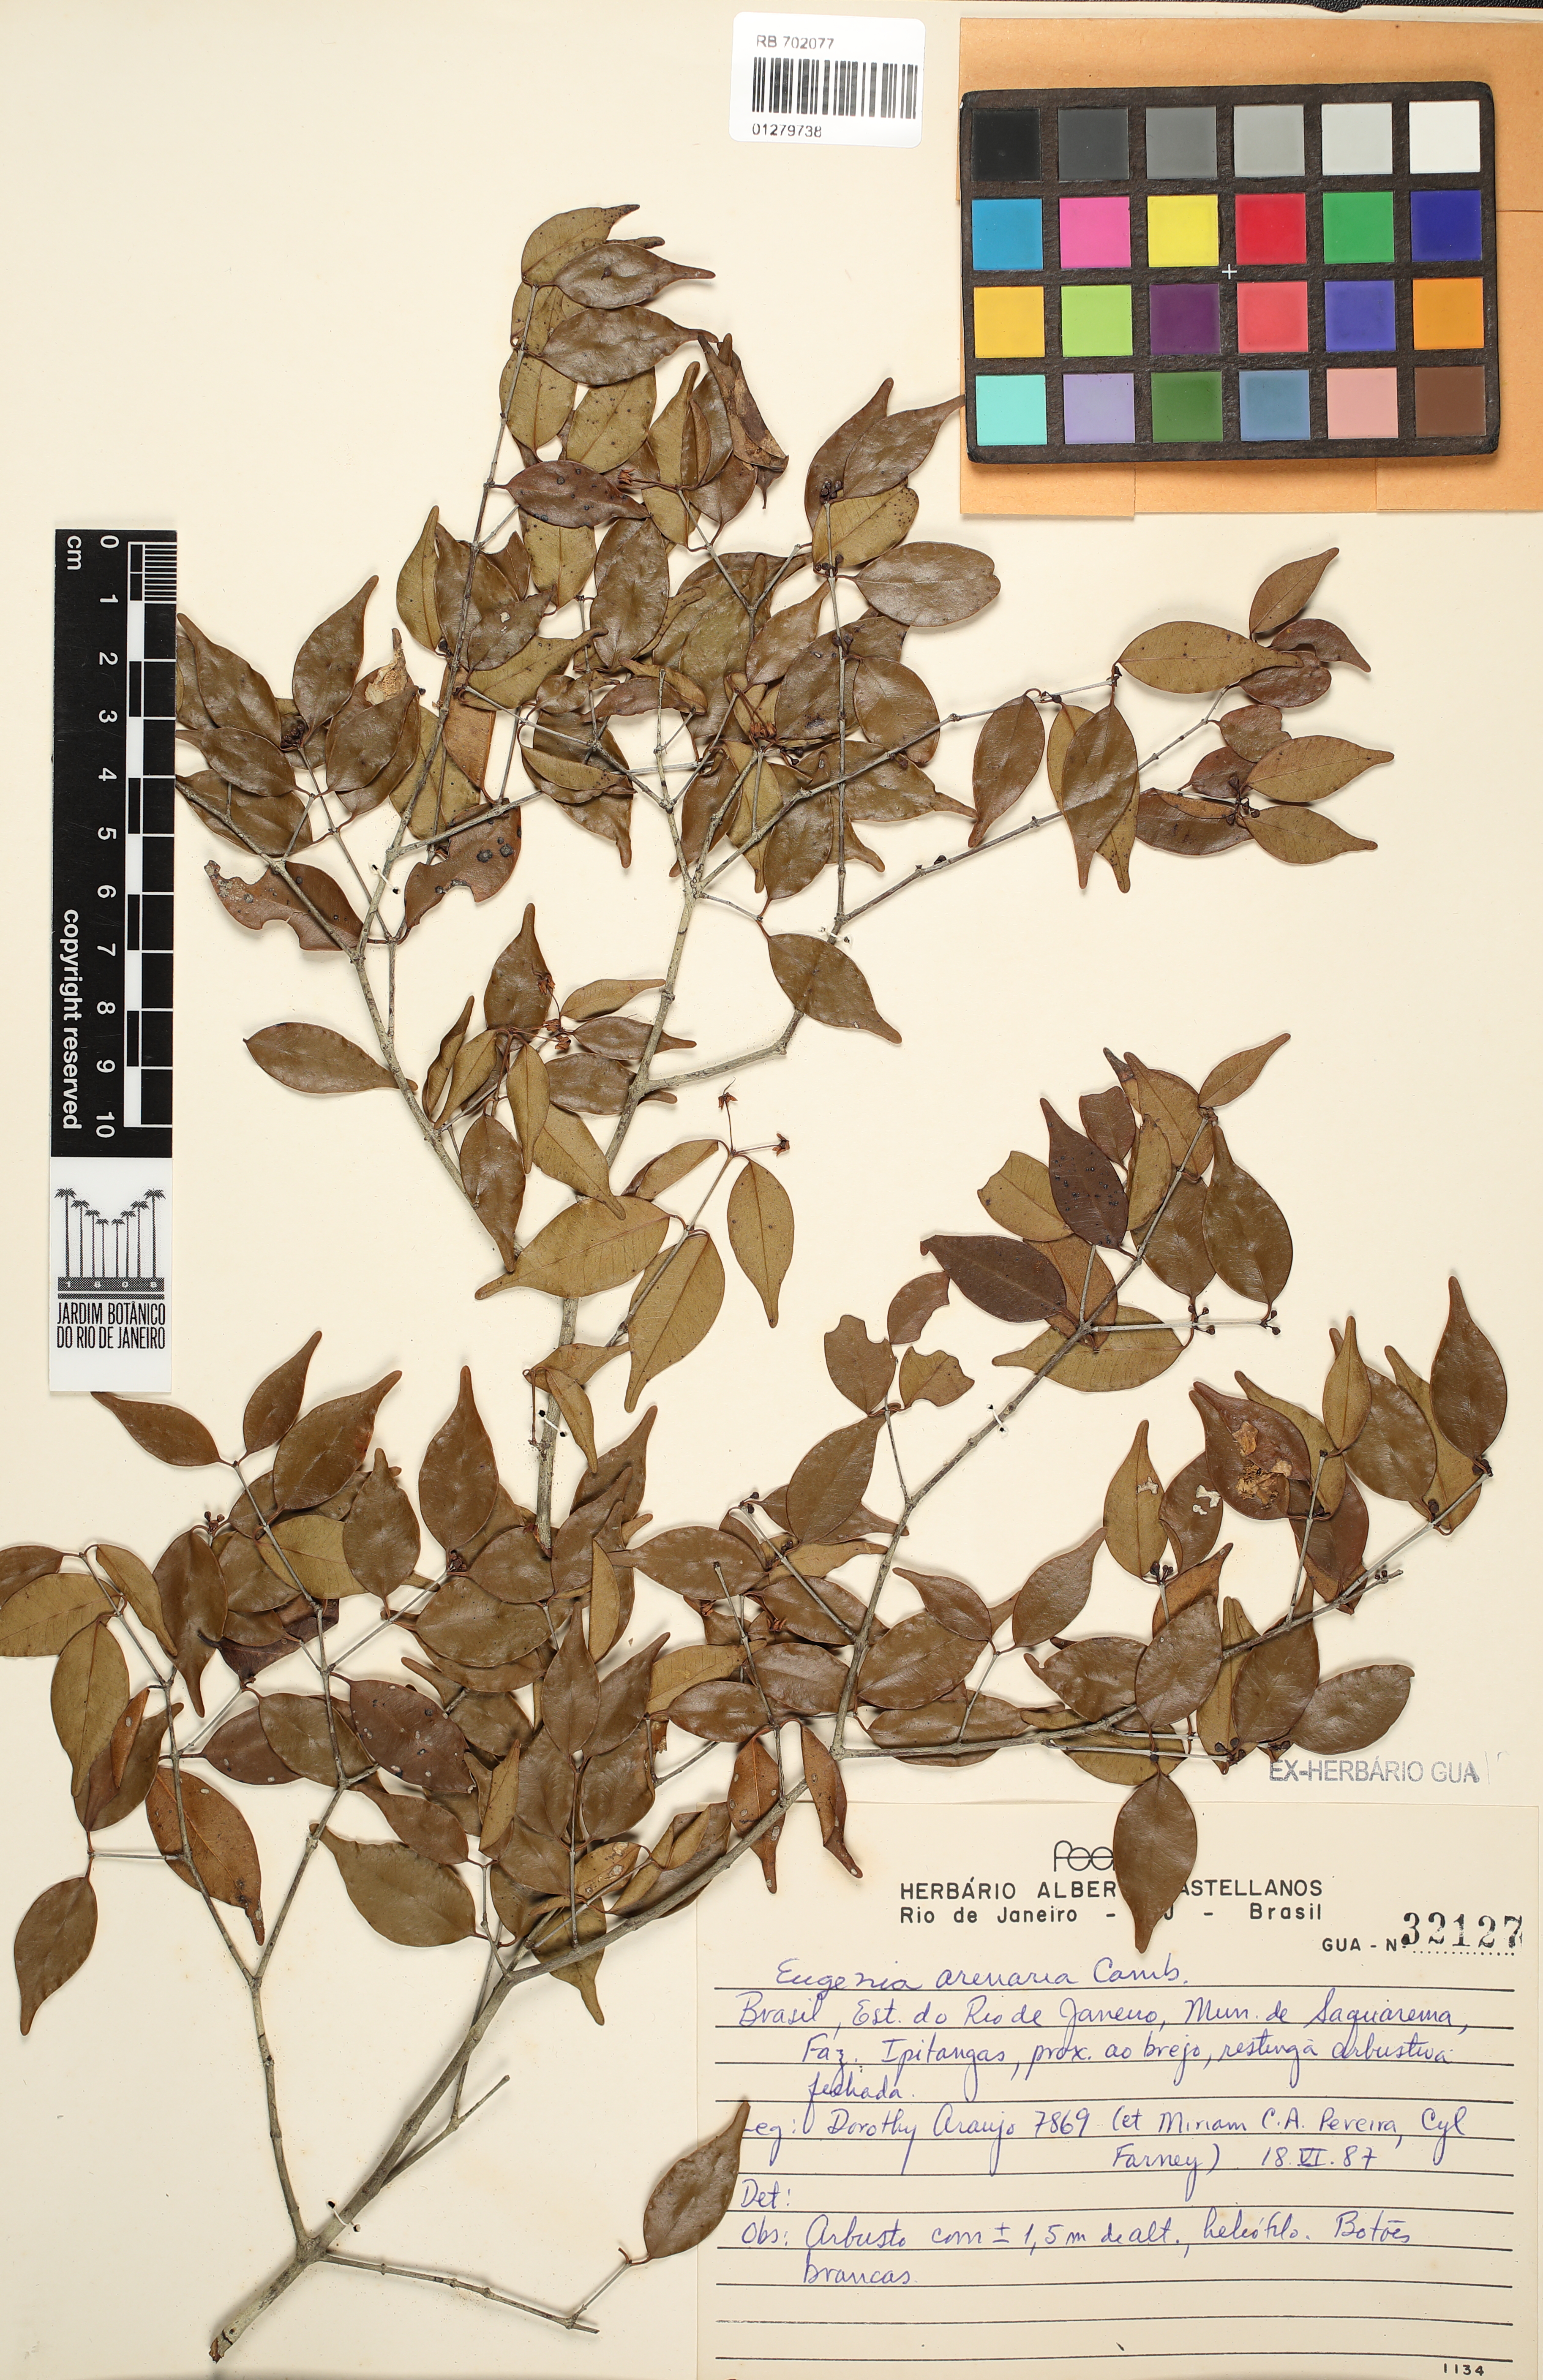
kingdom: Plantae
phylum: Tracheophyta
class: Magnoliopsida
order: Myrtales
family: Myrtaceae
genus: Eugenia
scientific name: Eugenia arenaria
